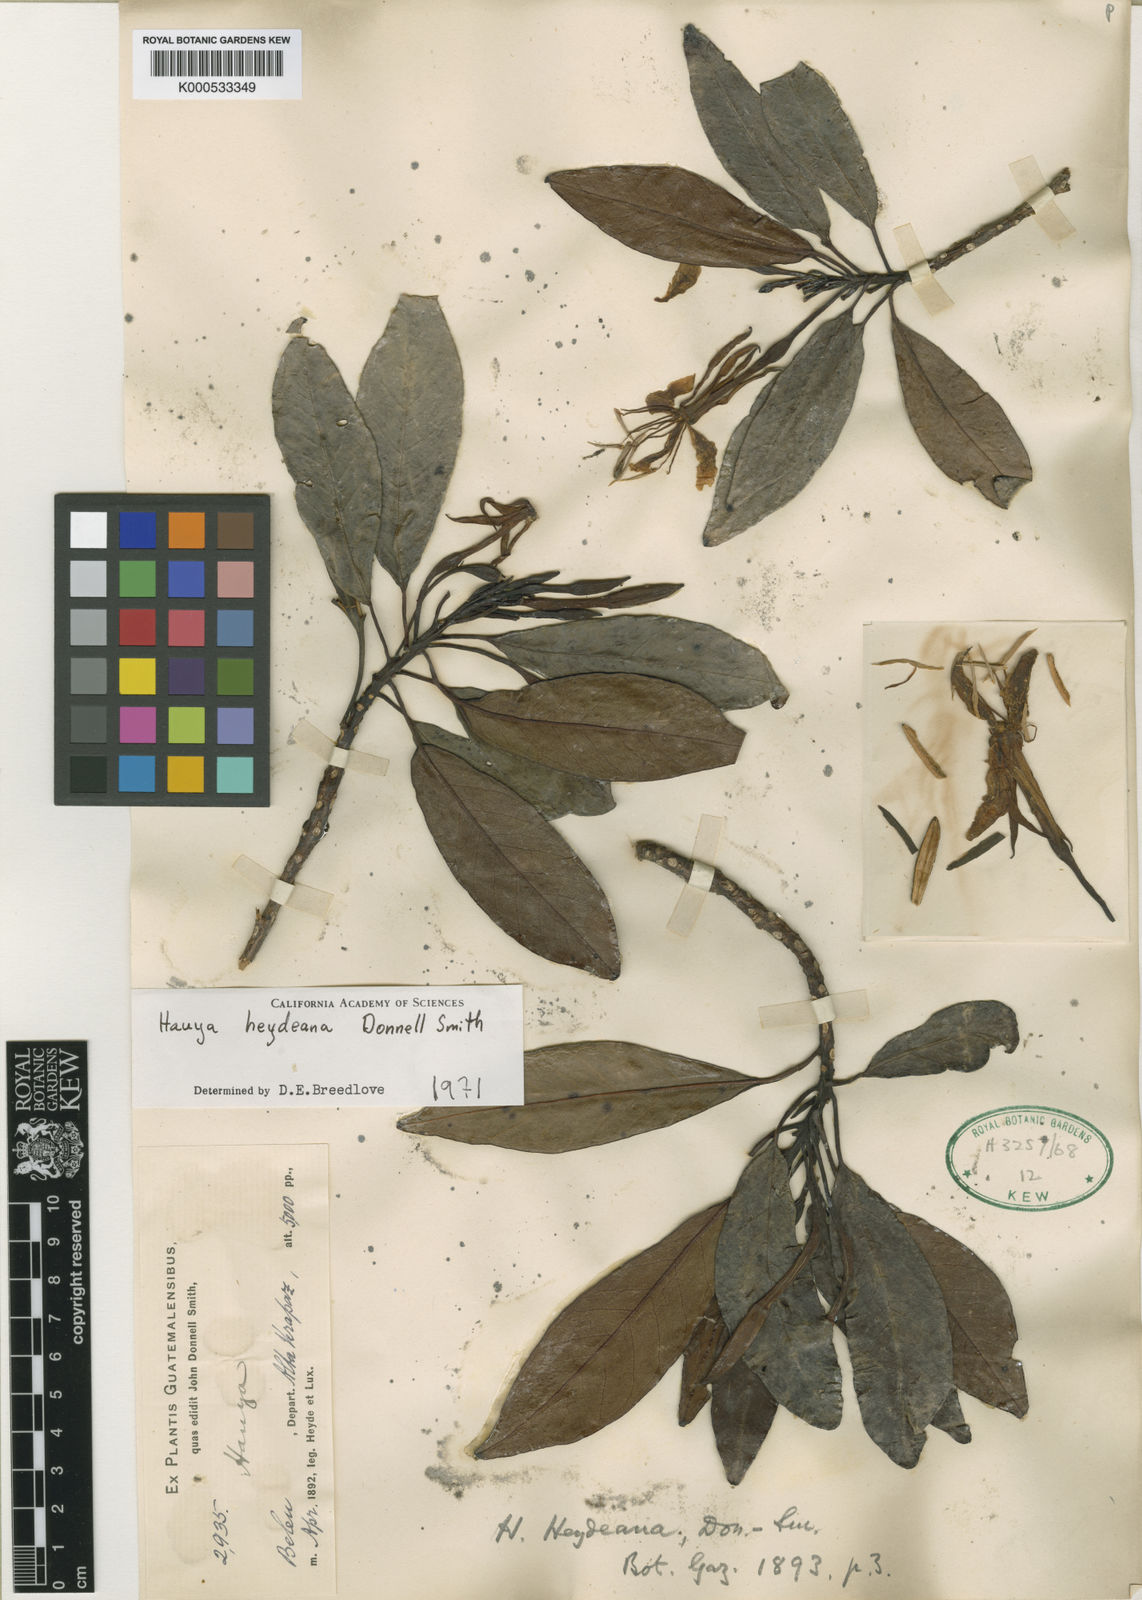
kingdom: Plantae
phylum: Tracheophyta
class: Magnoliopsida
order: Myrtales
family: Onagraceae
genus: Hauya
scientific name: Hauya heydeana
